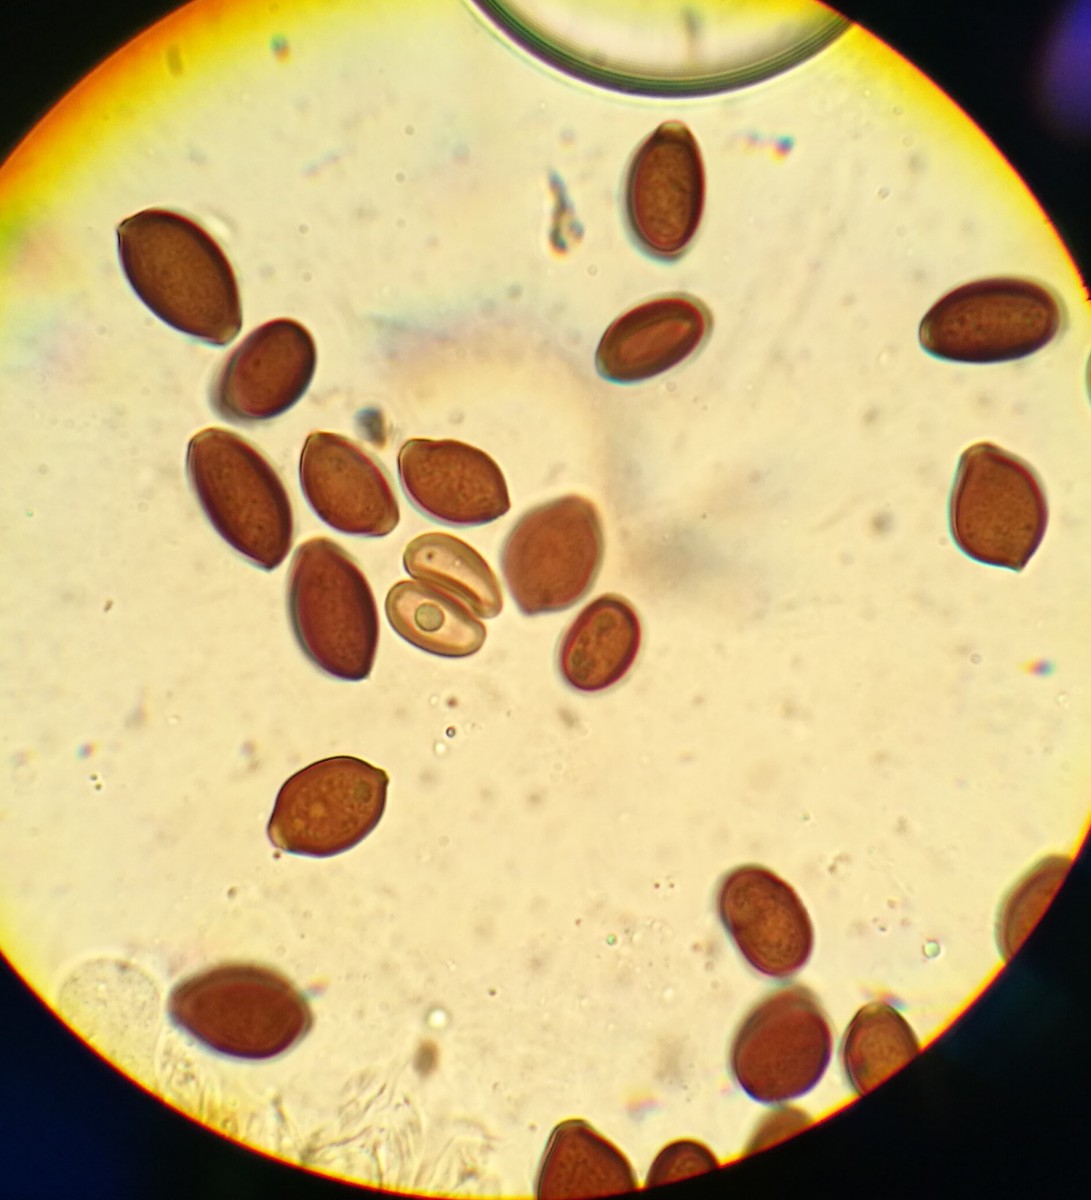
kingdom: Fungi
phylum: Basidiomycota
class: Agaricomycetes
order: Agaricales
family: Bolbitiaceae
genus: Panaeolus
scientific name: Panaeolus papilionaceus
